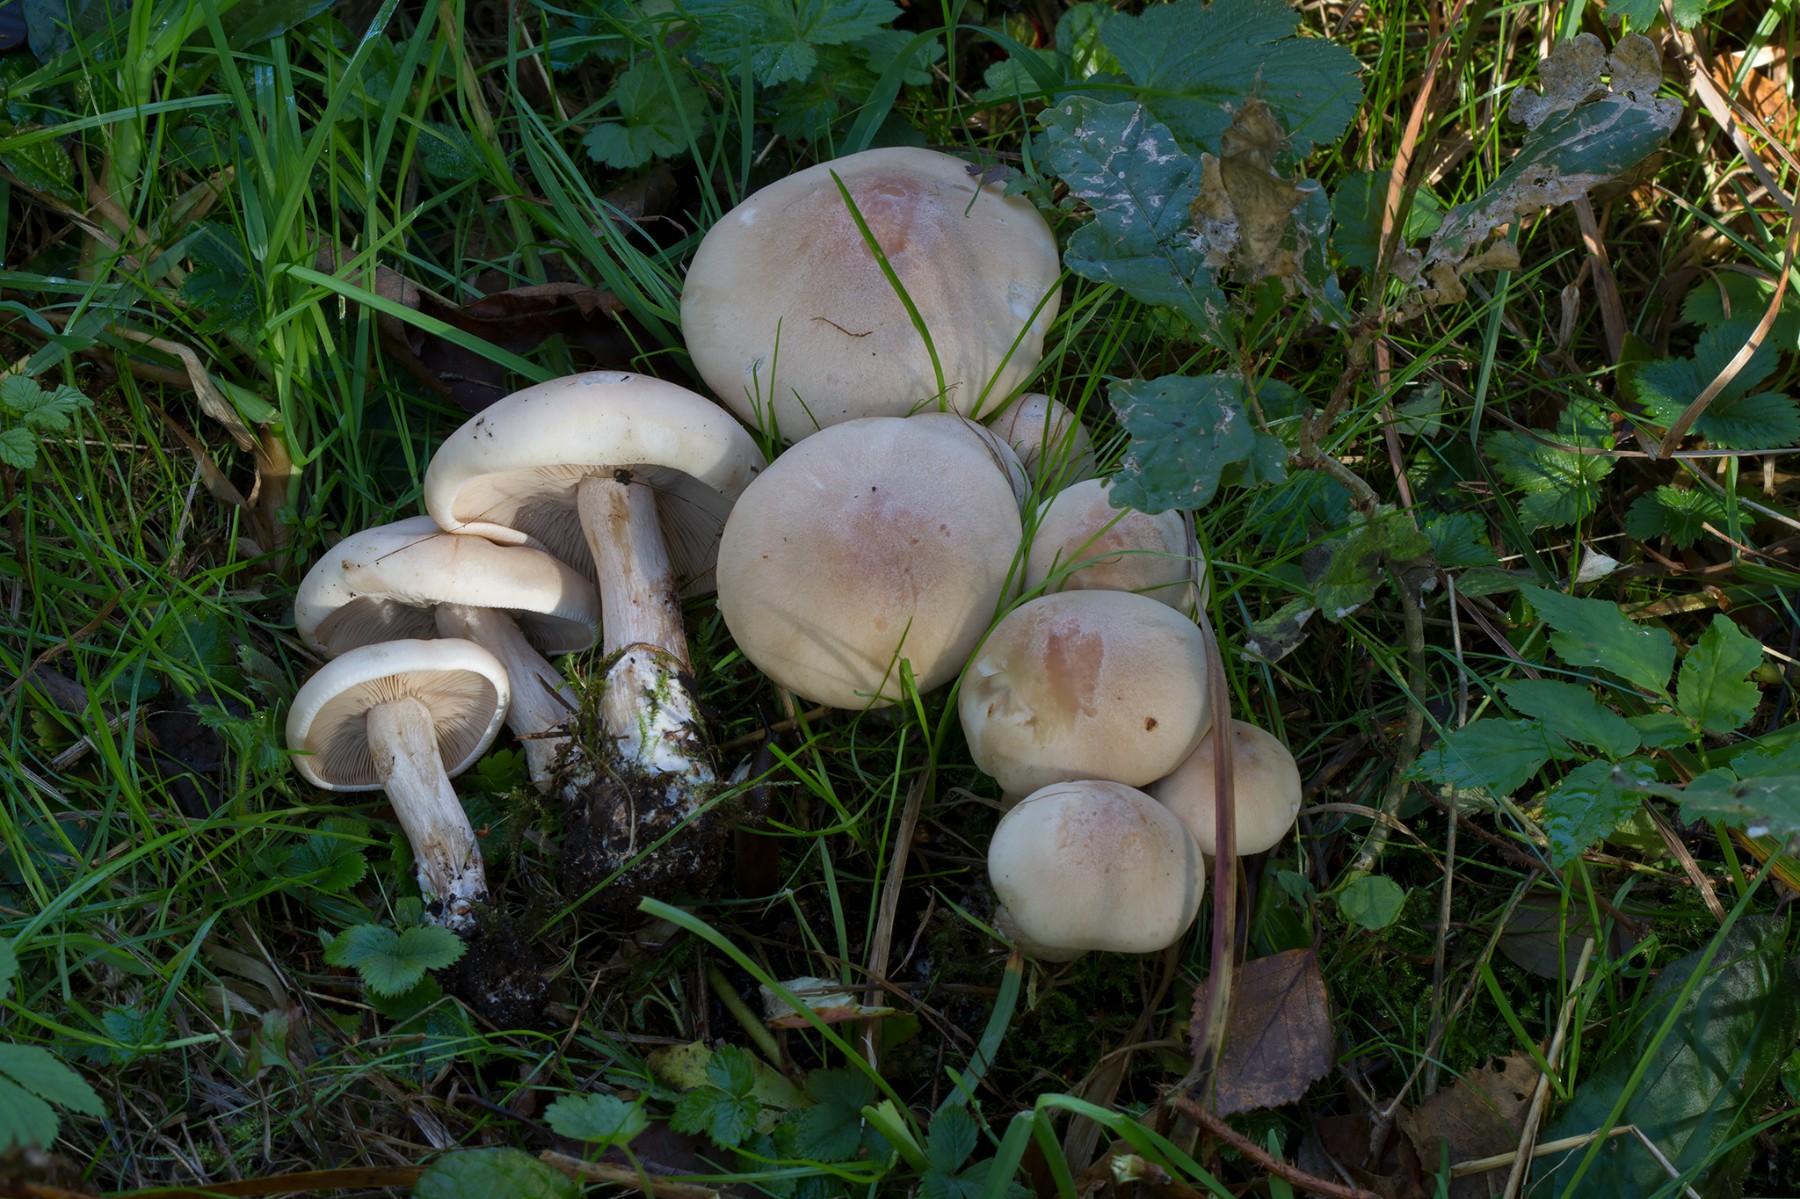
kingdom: Fungi
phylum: Basidiomycota
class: Agaricomycetes
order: Agaricales
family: Tricholomataceae
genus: Lepista
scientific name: Lepista irina
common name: violduftende hekseringshat
